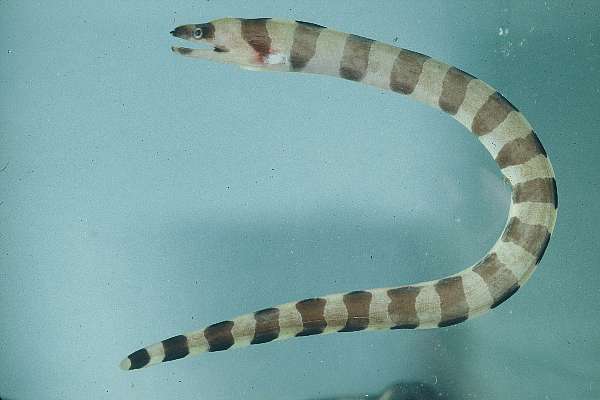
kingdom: Animalia
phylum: Chordata
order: Anguilliformes
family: Muraenidae
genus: Gymnothorax
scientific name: Gymnothorax rueppelliae
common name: Banded moray
